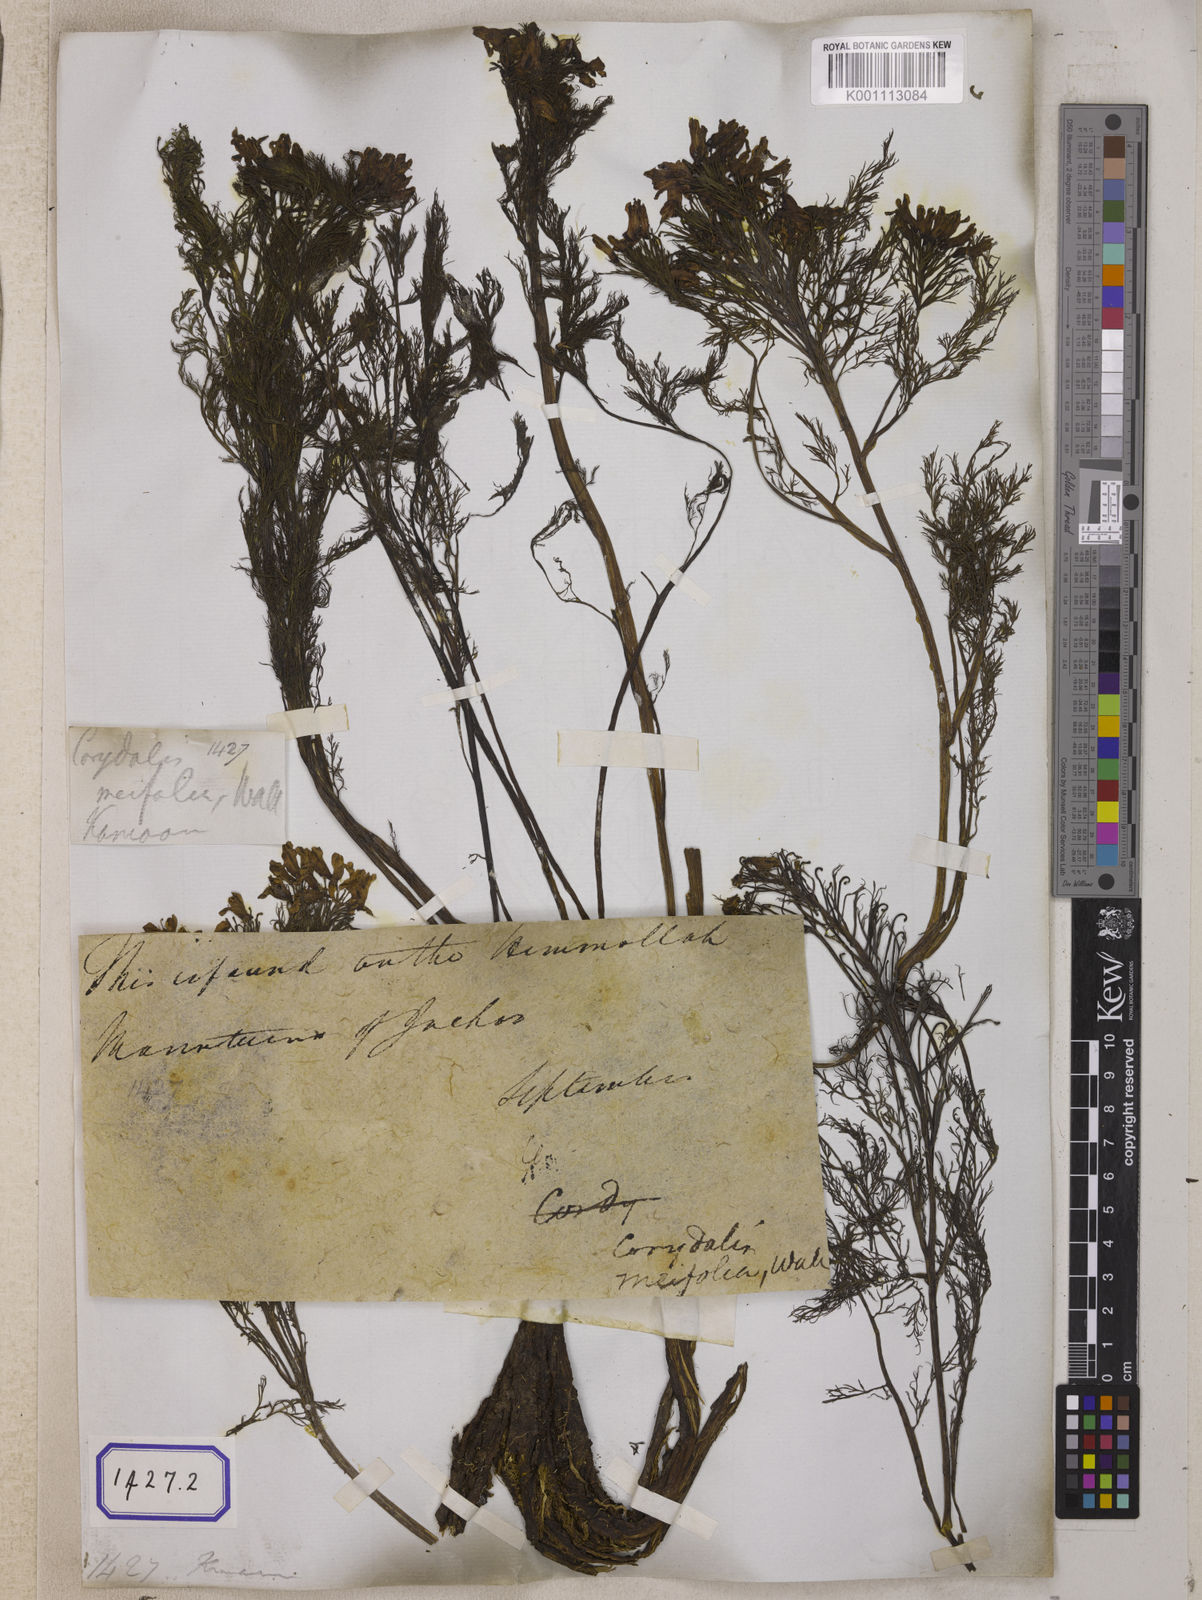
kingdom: Plantae
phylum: Tracheophyta
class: Magnoliopsida
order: Ranunculales
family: Papaveraceae
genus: Corydalis
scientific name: Corydalis meifolia
